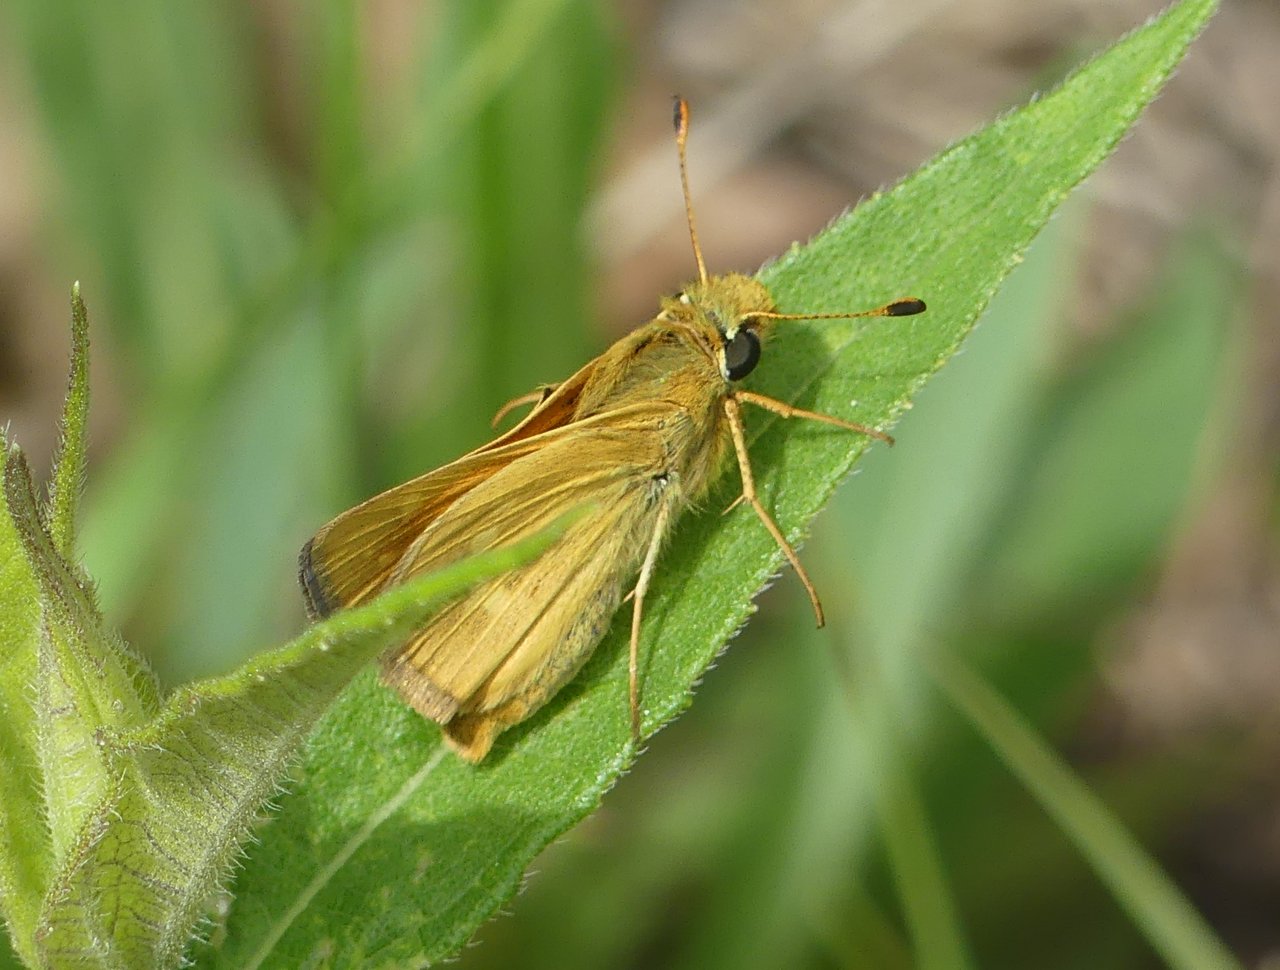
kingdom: Animalia
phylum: Arthropoda
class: Insecta
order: Lepidoptera
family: Hesperiidae
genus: Hesperia
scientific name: Hesperia sassacus
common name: Sassacus Skipper
